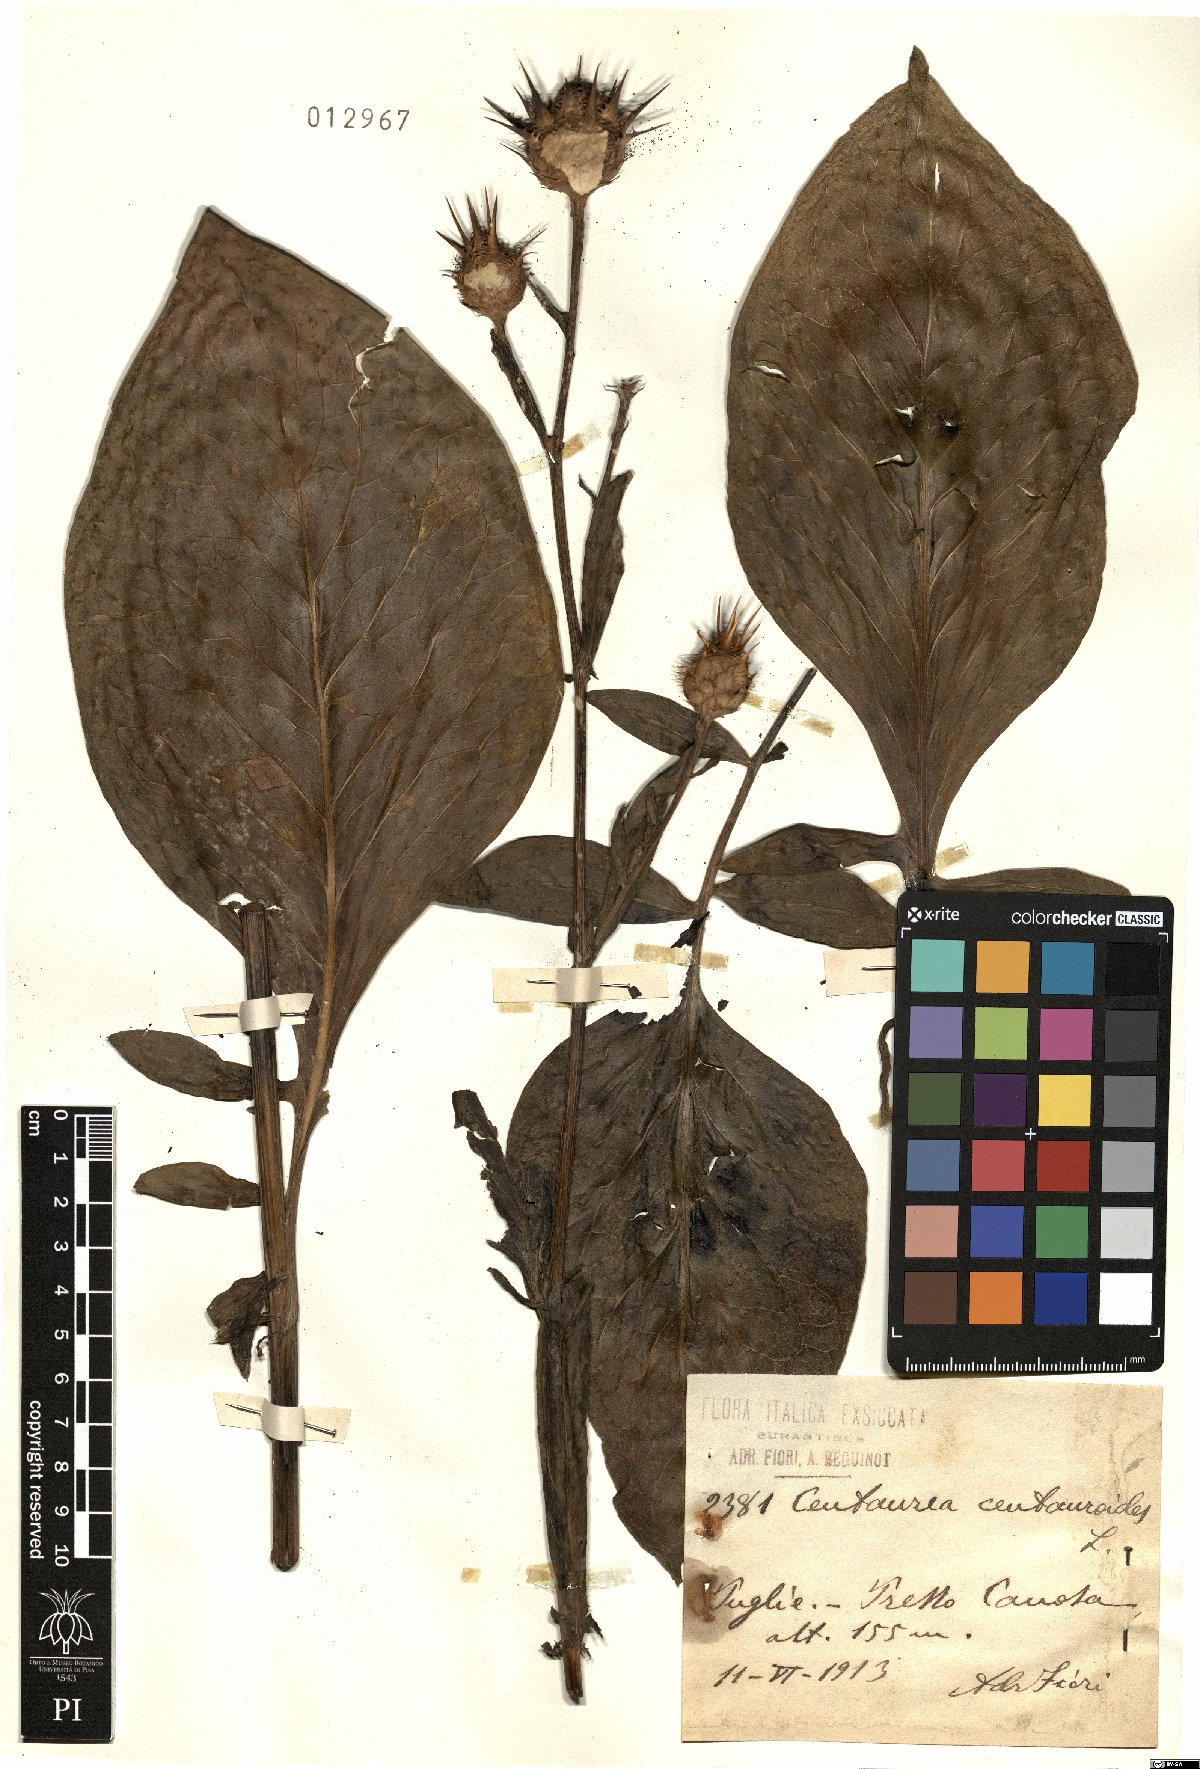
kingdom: Plantae
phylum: Tracheophyta
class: Magnoliopsida
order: Asterales
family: Asteraceae
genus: Centaurea
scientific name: Centaurea centauroides
